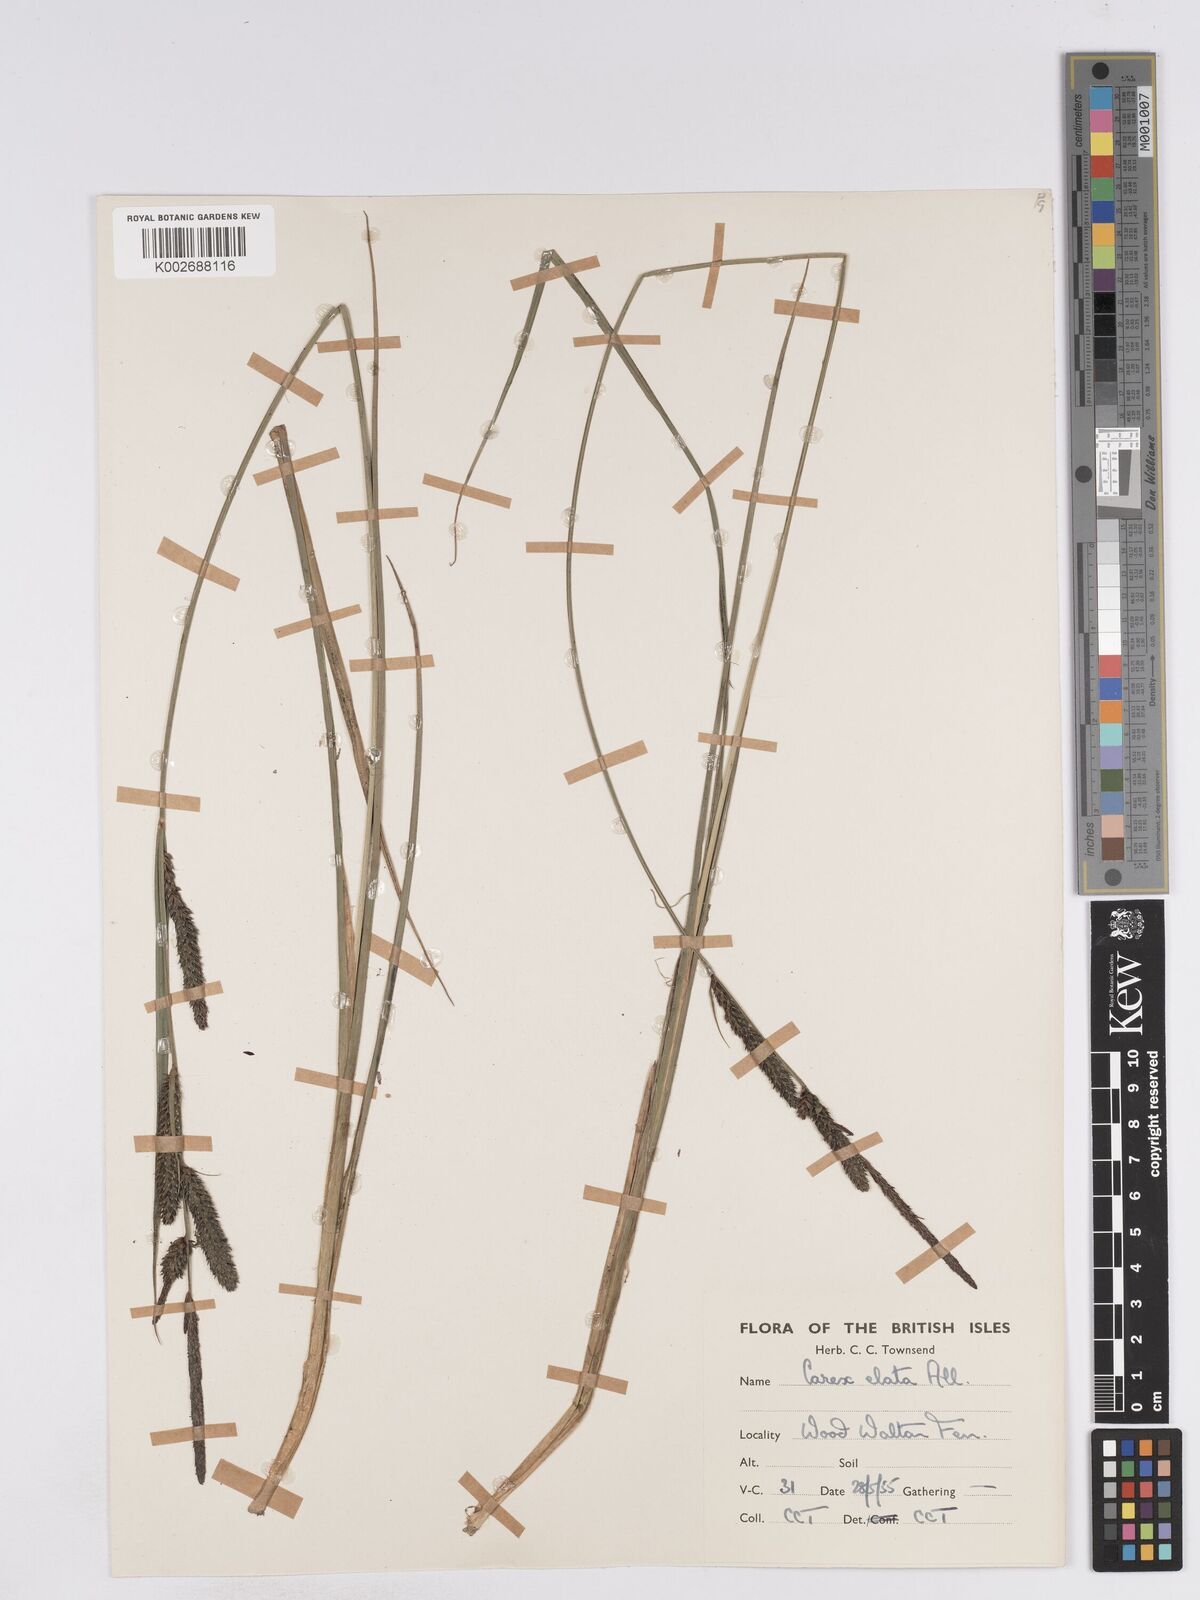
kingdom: Plantae
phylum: Tracheophyta
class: Liliopsida
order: Poales
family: Cyperaceae
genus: Carex
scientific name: Carex elata
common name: Tufted sedge
